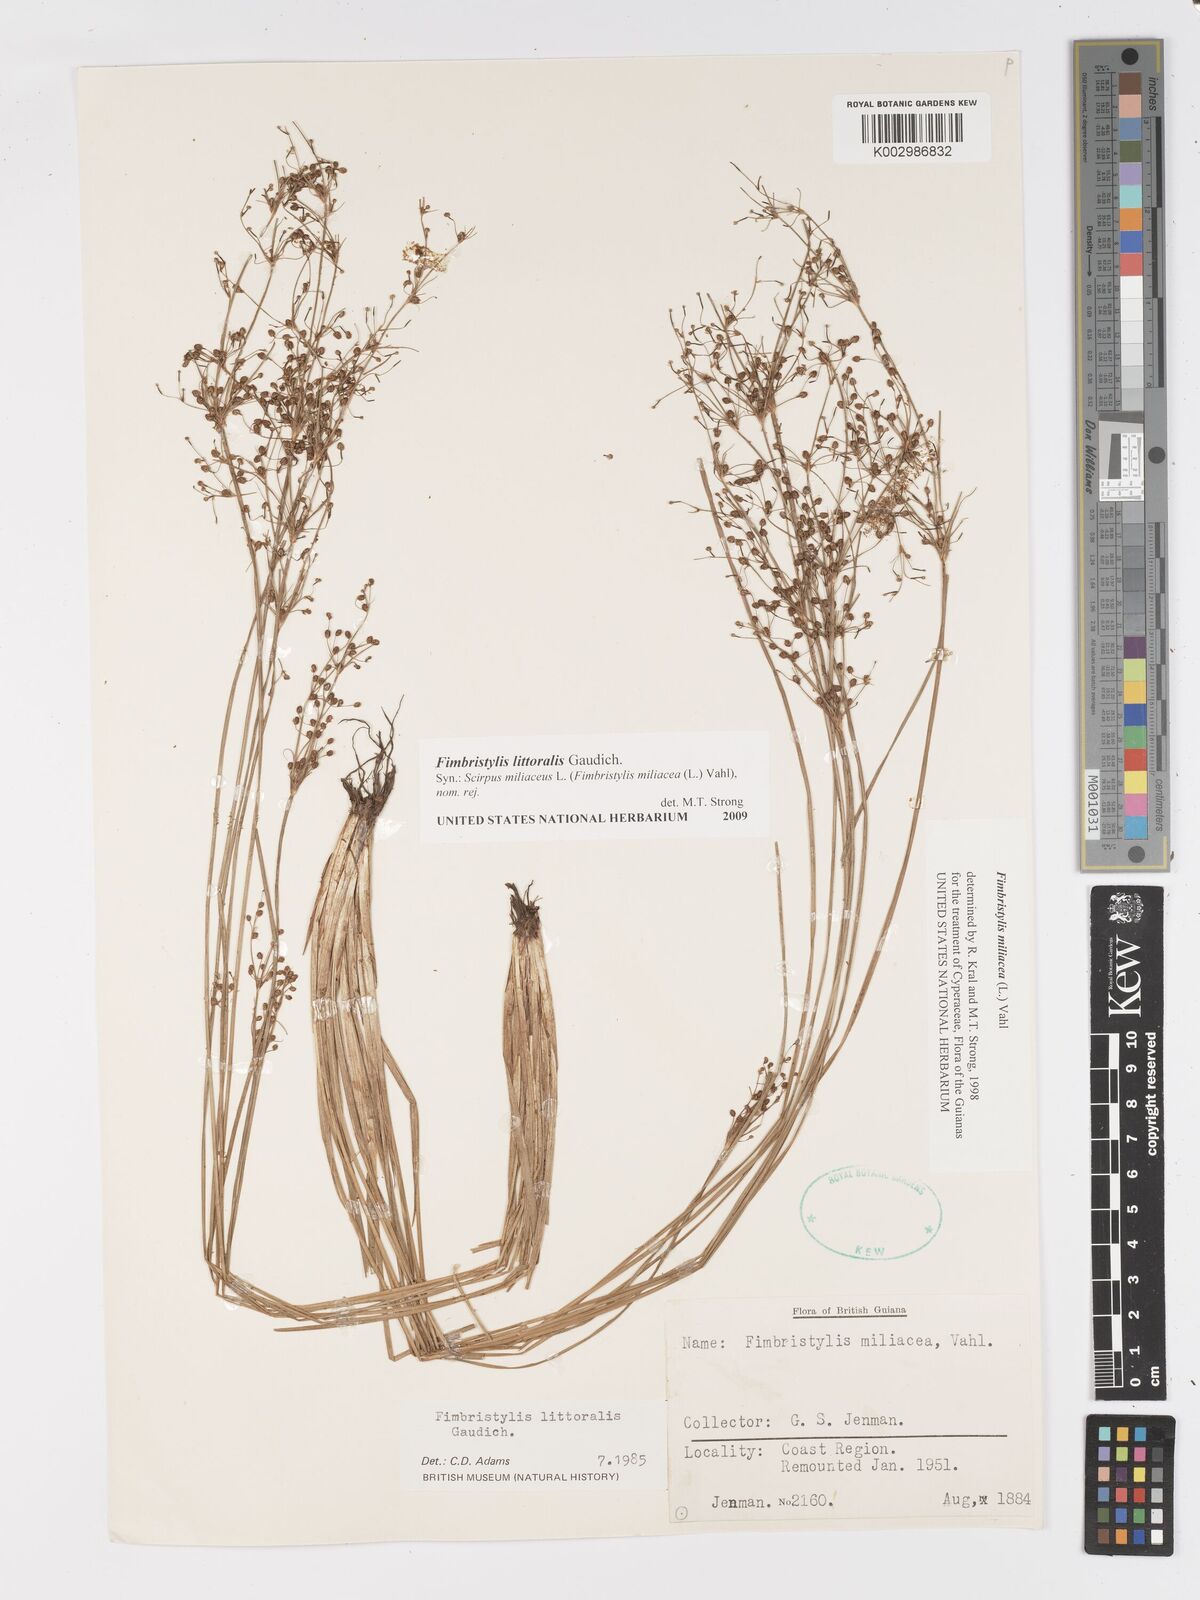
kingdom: Plantae
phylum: Tracheophyta
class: Liliopsida
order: Poales
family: Cyperaceae
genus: Fimbristylis
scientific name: Fimbristylis littoralis
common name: Fimbry
